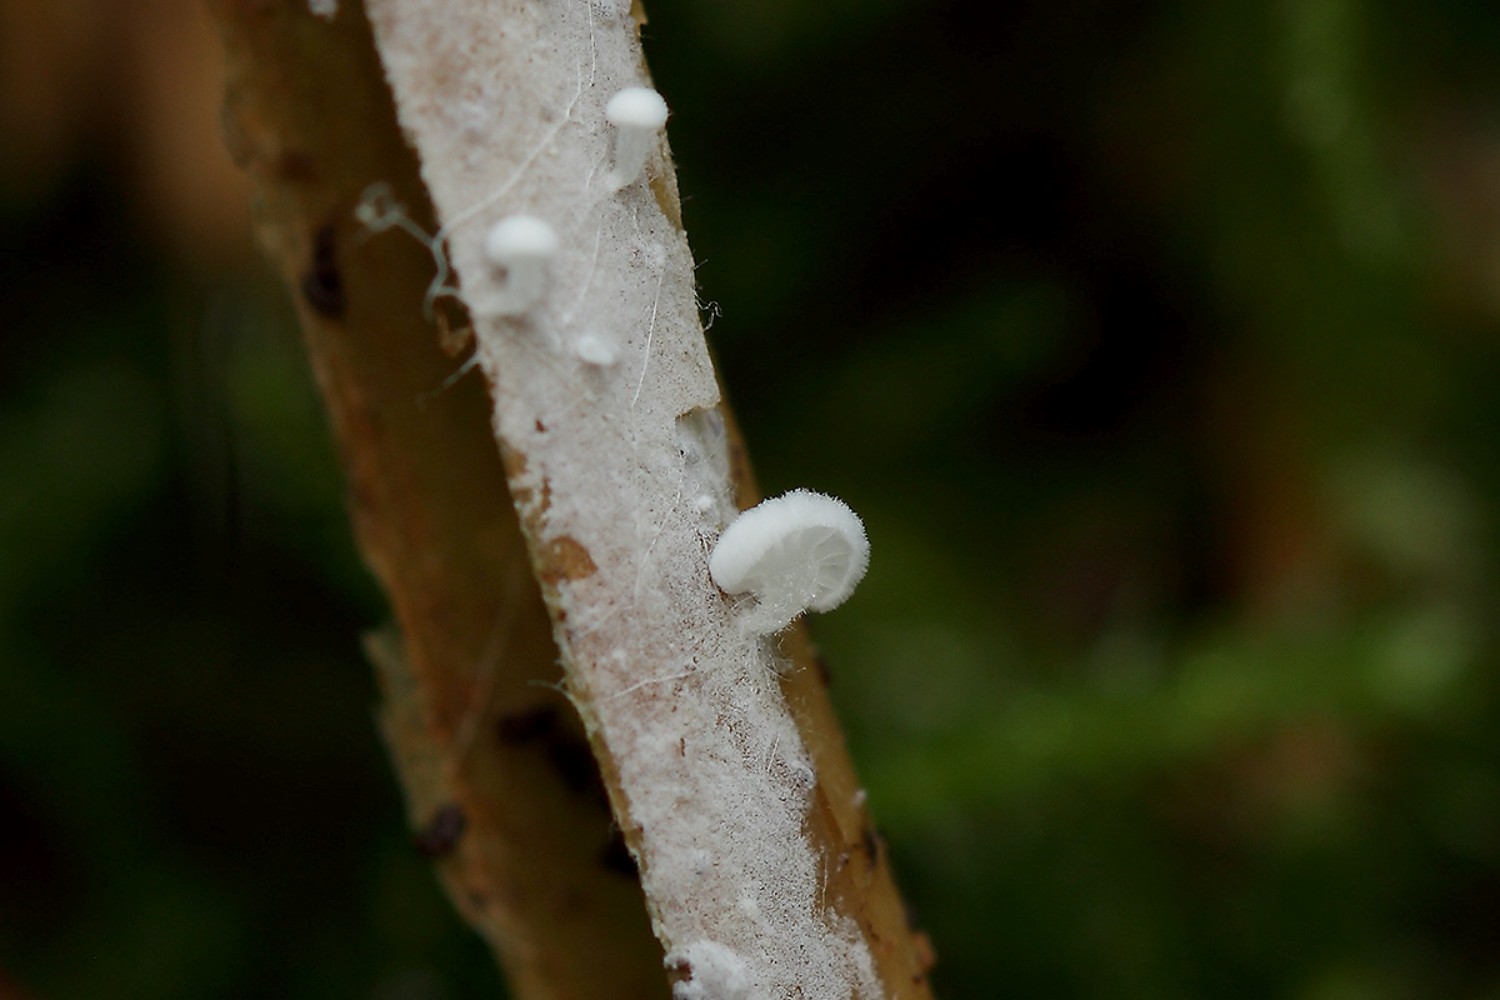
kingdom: Fungi
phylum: Basidiomycota
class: Agaricomycetes
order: Agaricales
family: Entolomataceae
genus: Clitopilus
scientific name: Clitopilus hobsonii
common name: Miller's oysterling
